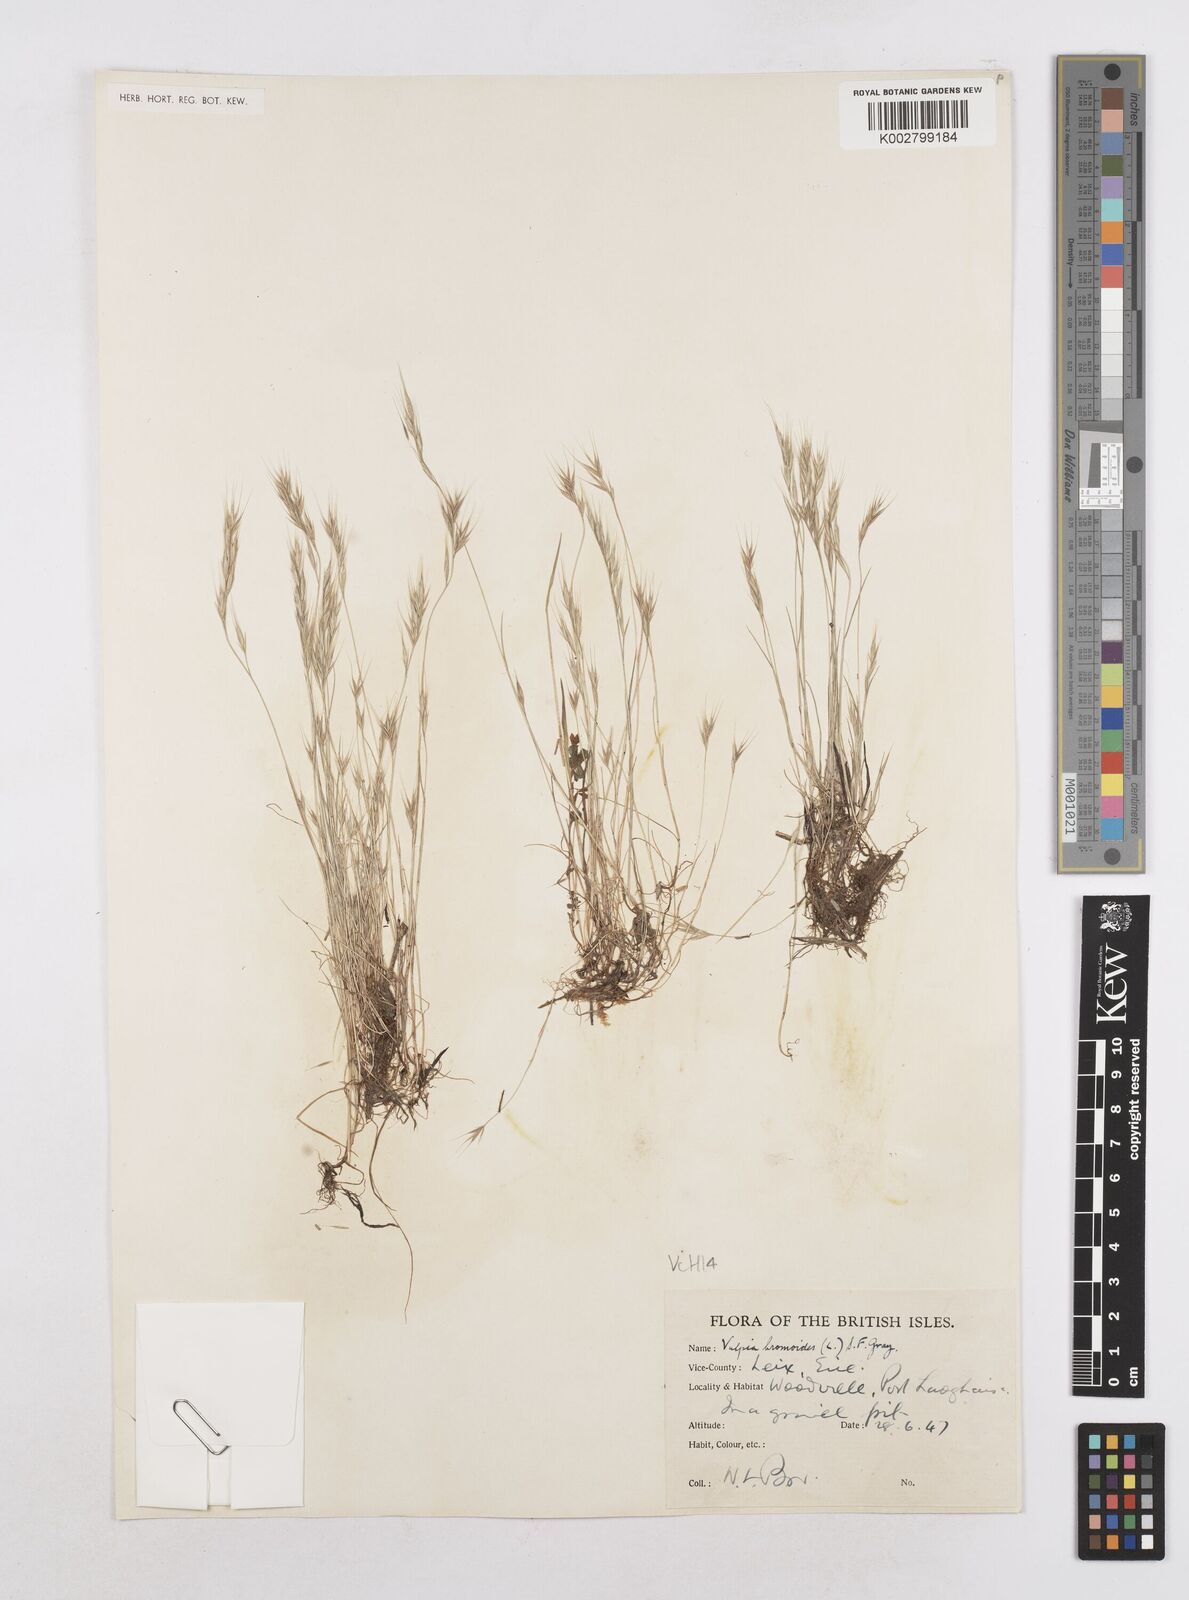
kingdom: Plantae
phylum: Tracheophyta
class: Liliopsida
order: Poales
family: Poaceae
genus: Festuca
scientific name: Festuca bromoides
